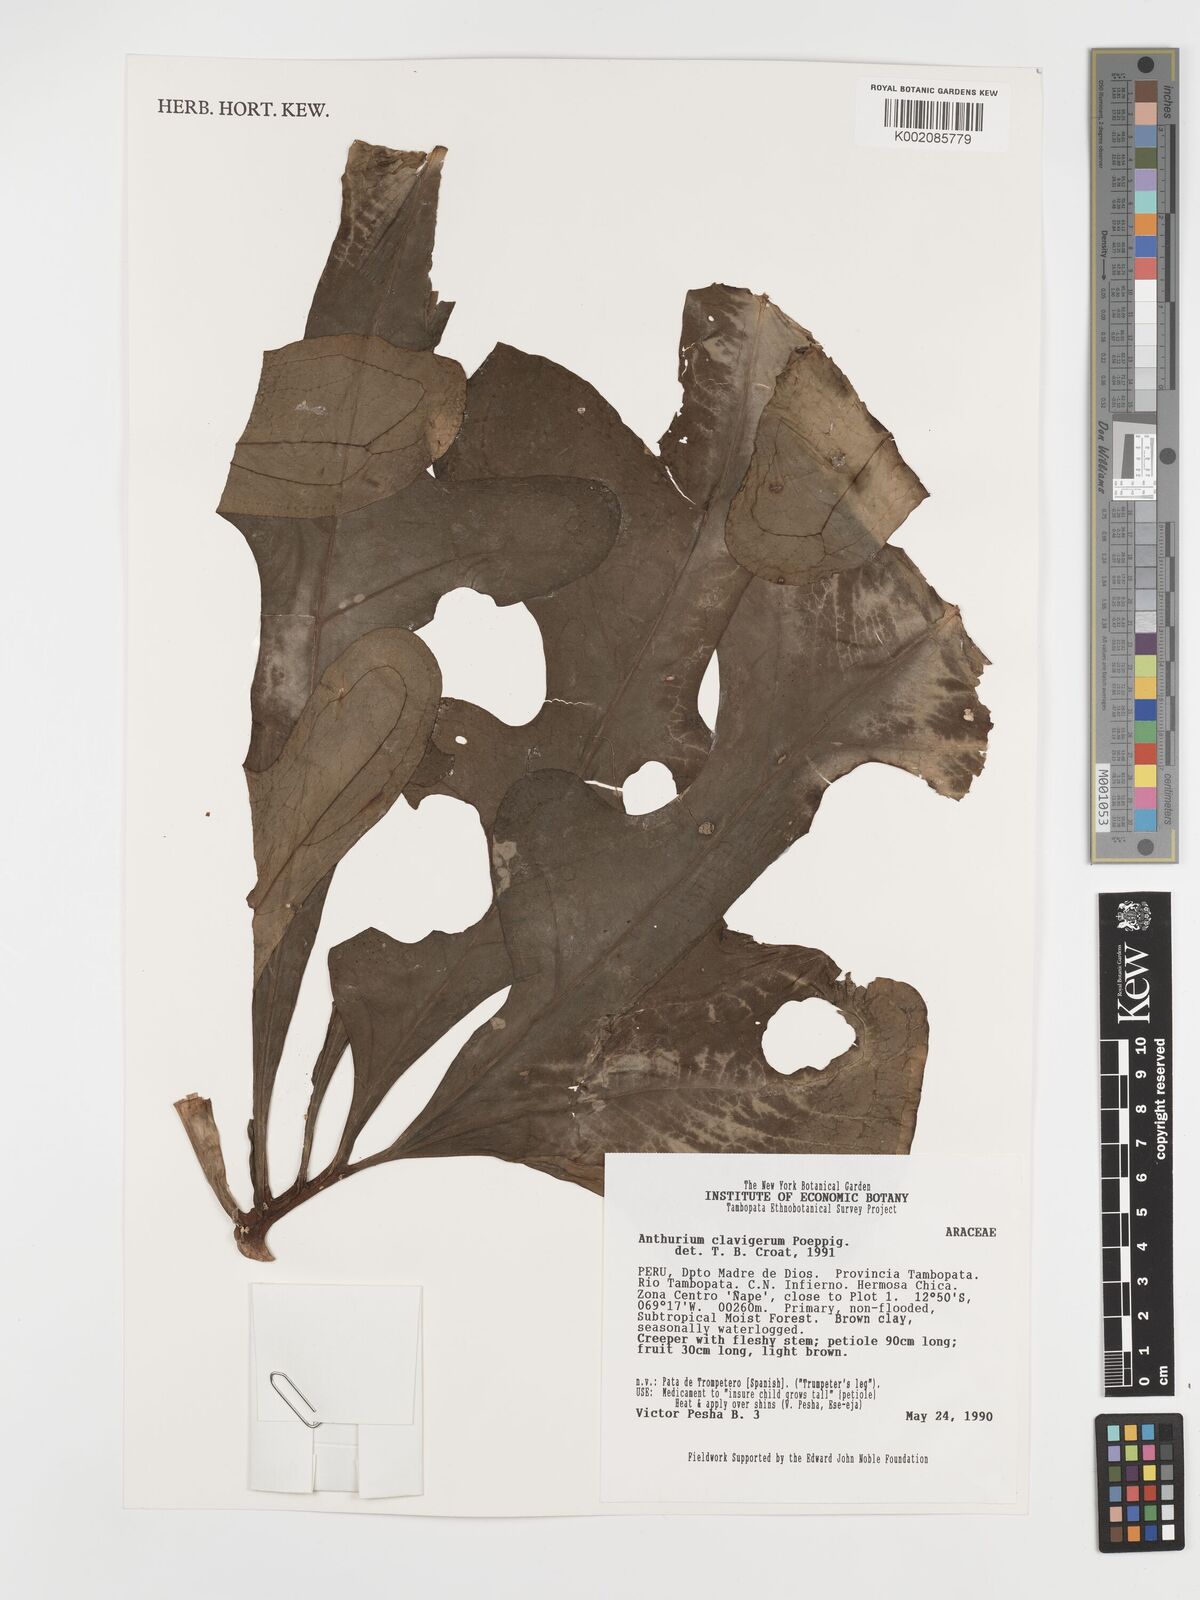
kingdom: Plantae
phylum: Tracheophyta
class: Liliopsida
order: Alismatales
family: Araceae
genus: Anthurium
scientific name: Anthurium clavigerum
